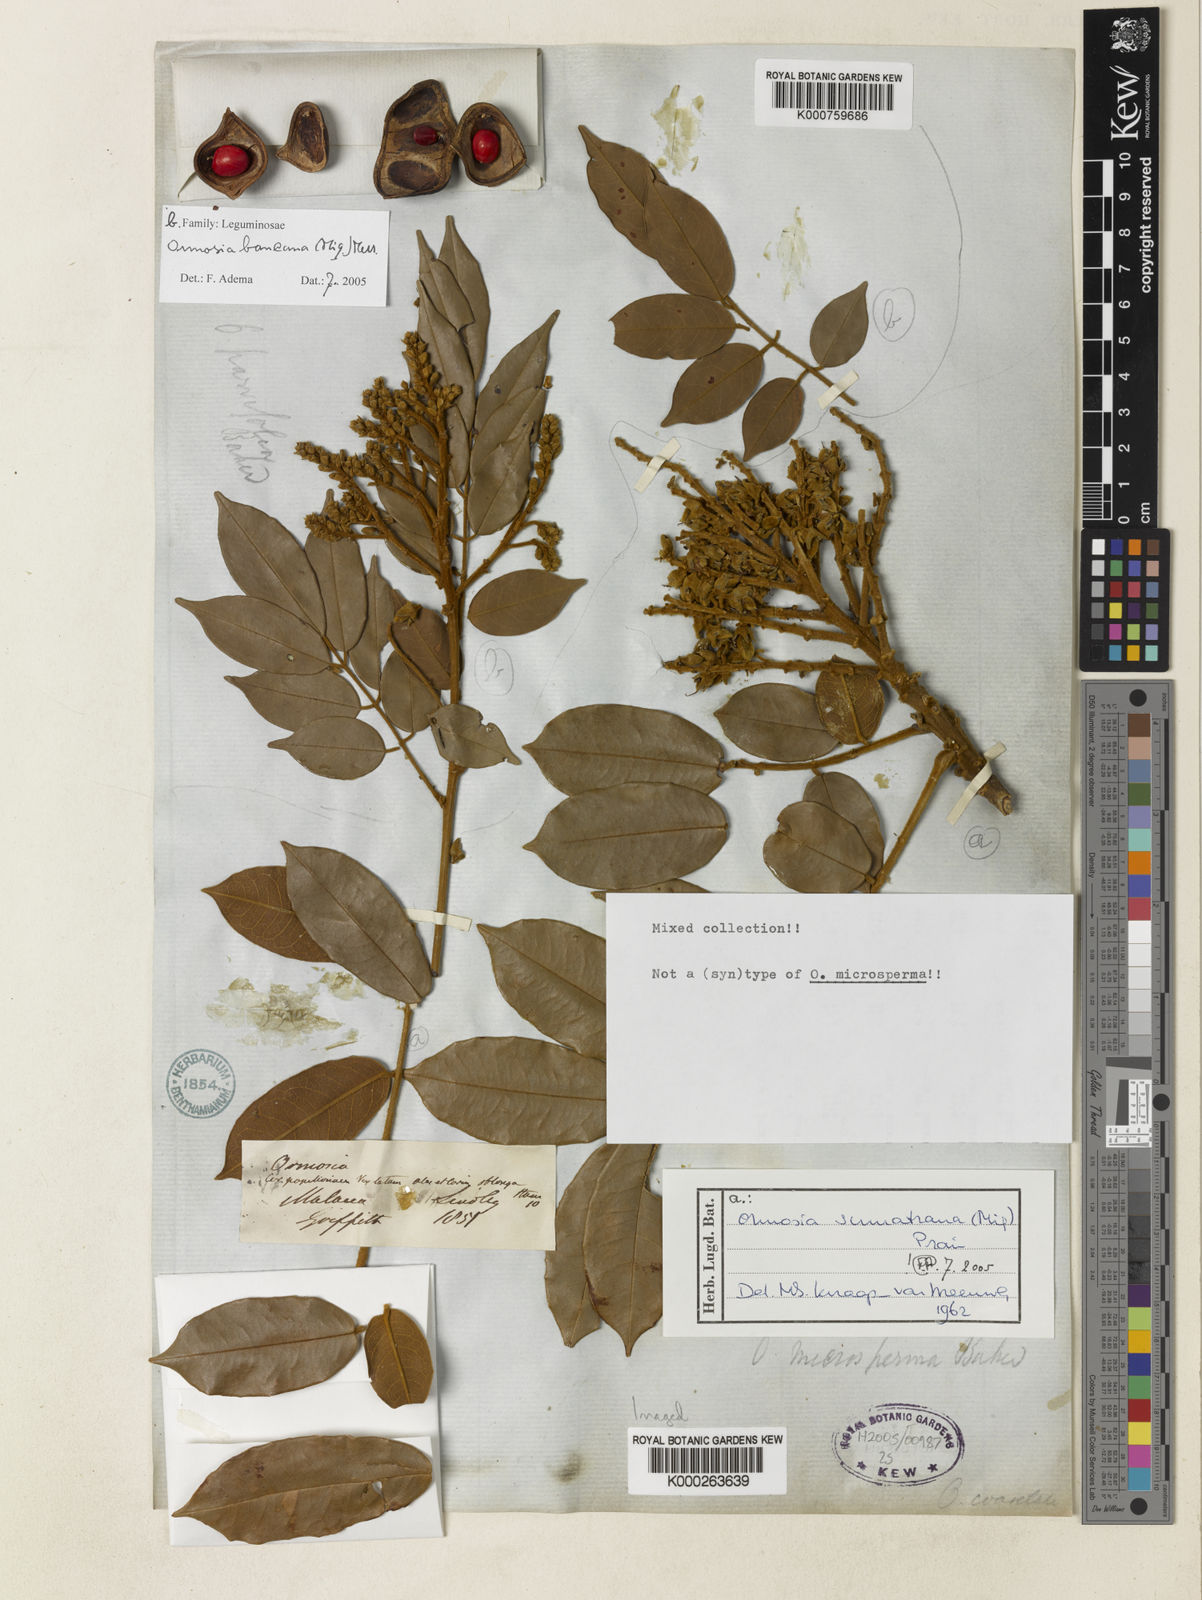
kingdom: Plantae
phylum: Tracheophyta
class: Magnoliopsida
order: Fabales
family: Fabaceae
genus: Ormosia
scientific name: Ormosia
